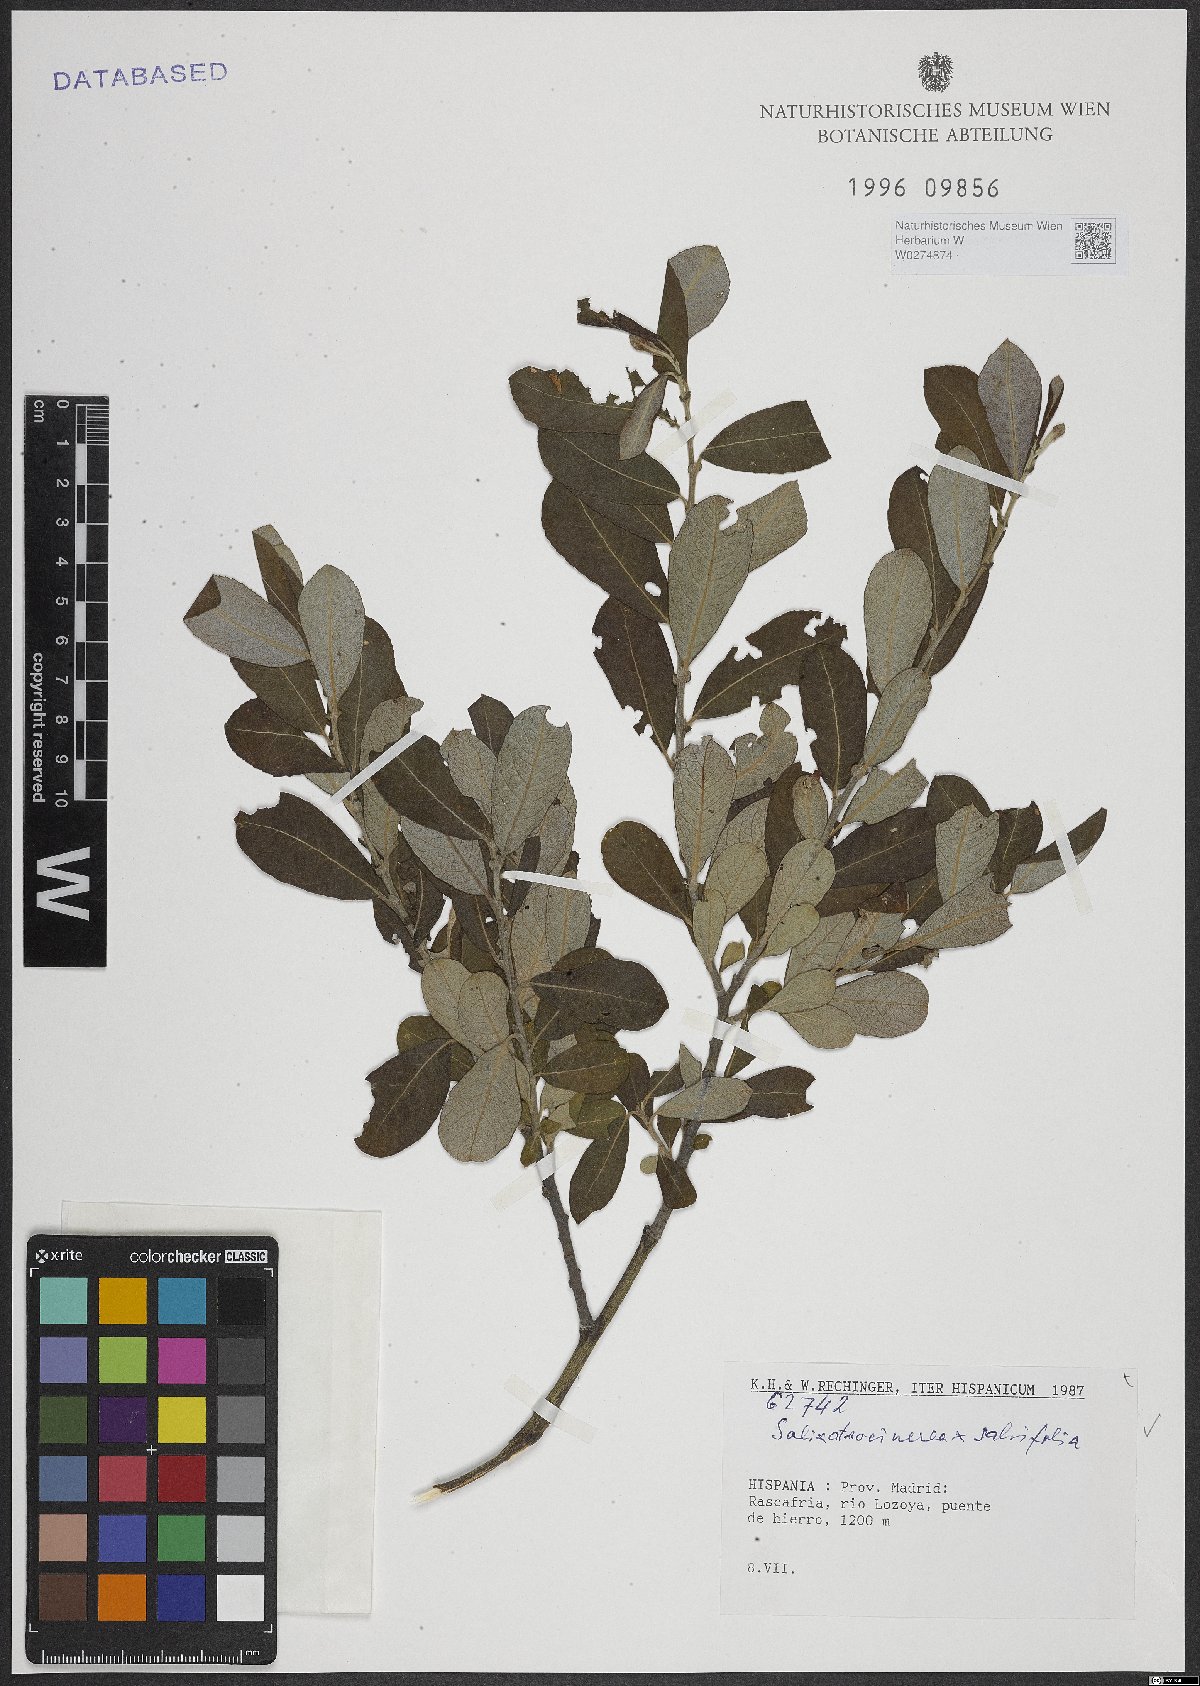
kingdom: Plantae
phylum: Tracheophyta
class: Magnoliopsida
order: Malpighiales
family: Salicaceae
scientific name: Salicaceae
